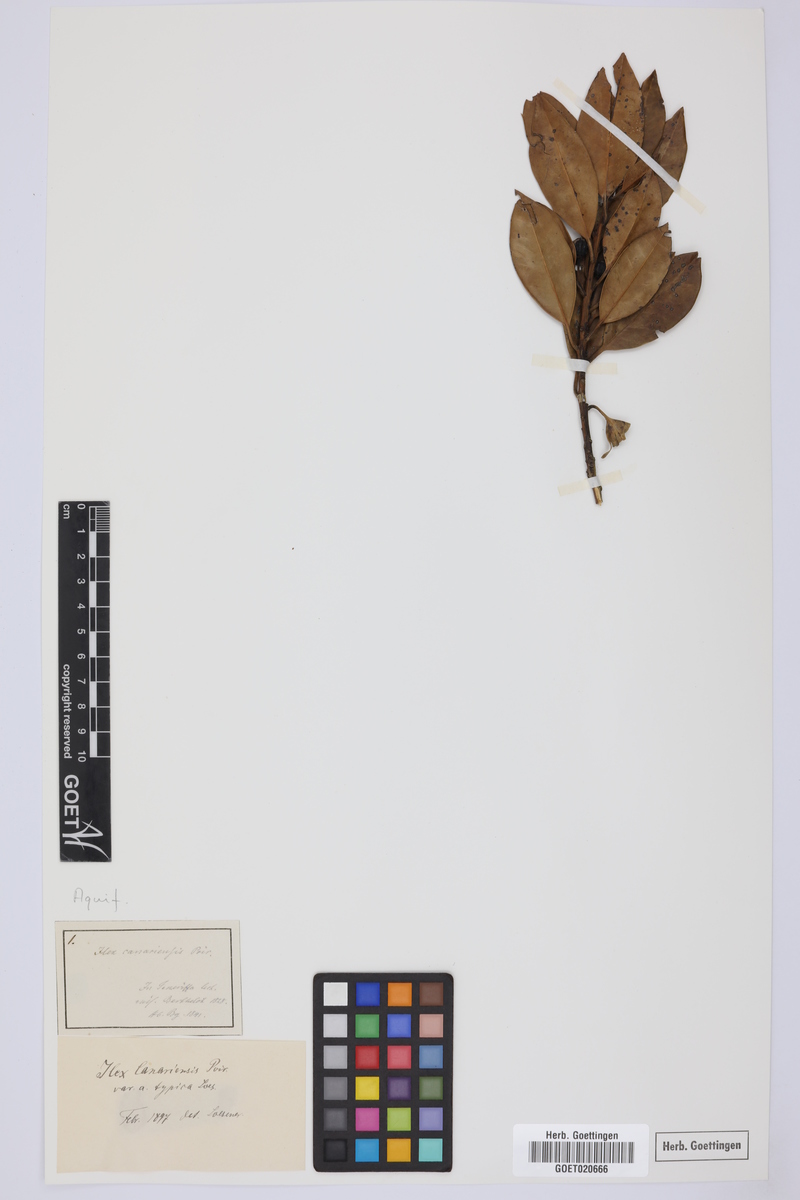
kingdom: Plantae
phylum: Tracheophyta
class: Magnoliopsida
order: Aquifoliales
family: Aquifoliaceae
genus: Ilex
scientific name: Ilex canariensis
